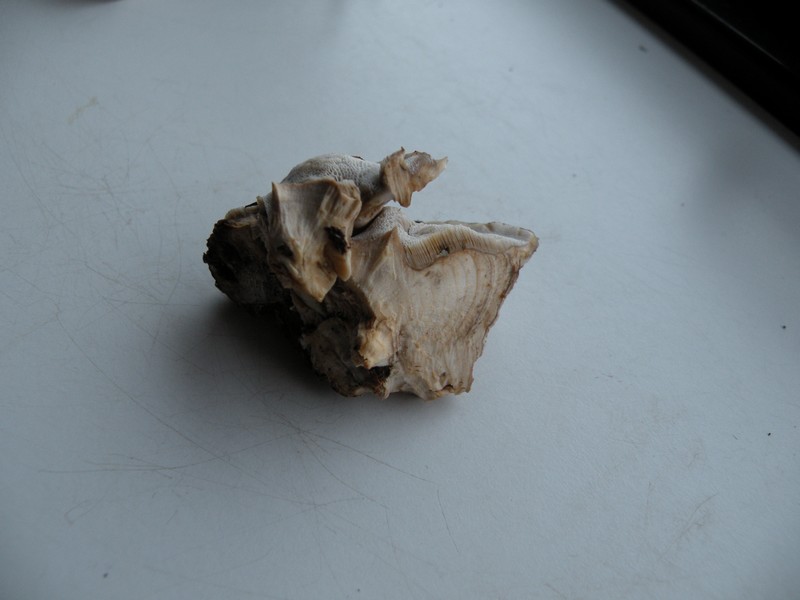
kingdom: Fungi
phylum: Basidiomycota
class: Agaricomycetes
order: Polyporales
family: Phanerochaetaceae
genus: Bjerkandera
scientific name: Bjerkandera fumosa
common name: grågul sodporesvamp
